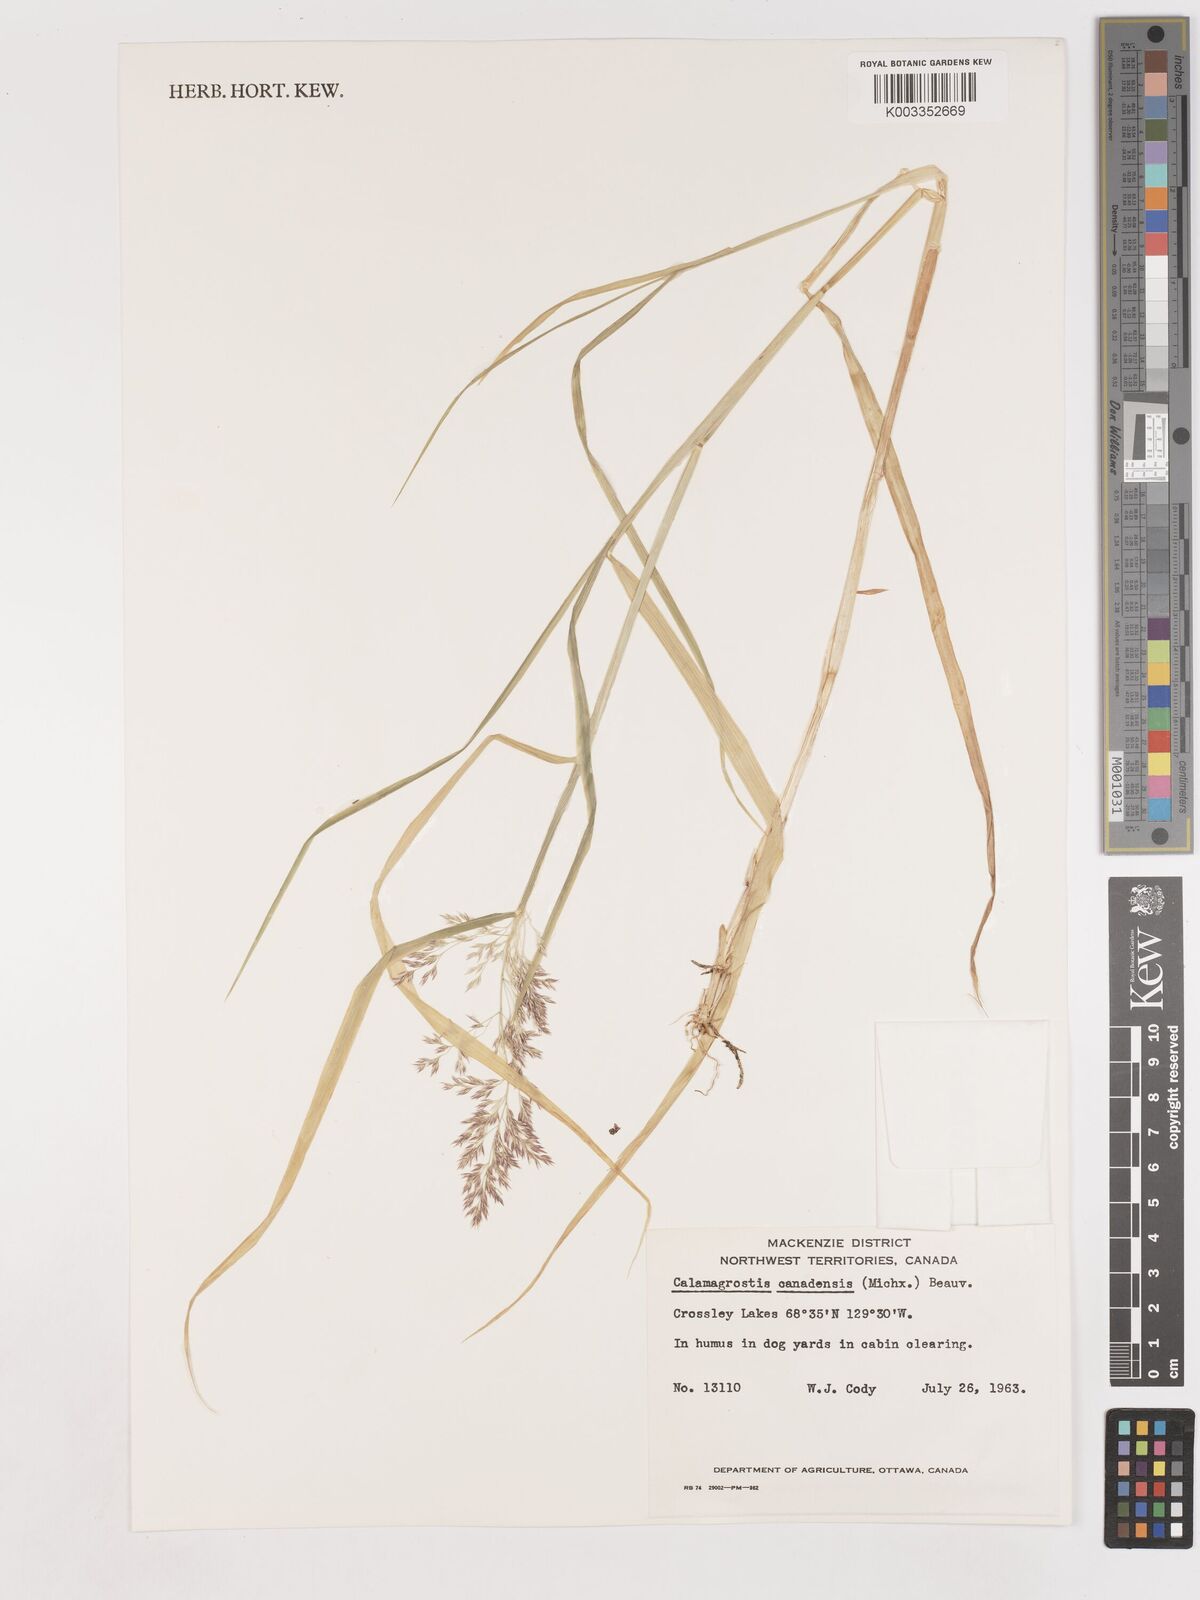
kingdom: Plantae
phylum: Tracheophyta
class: Liliopsida
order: Poales
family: Poaceae
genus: Calamagrostis
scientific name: Calamagrostis canadensis
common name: Canada bluejoint
